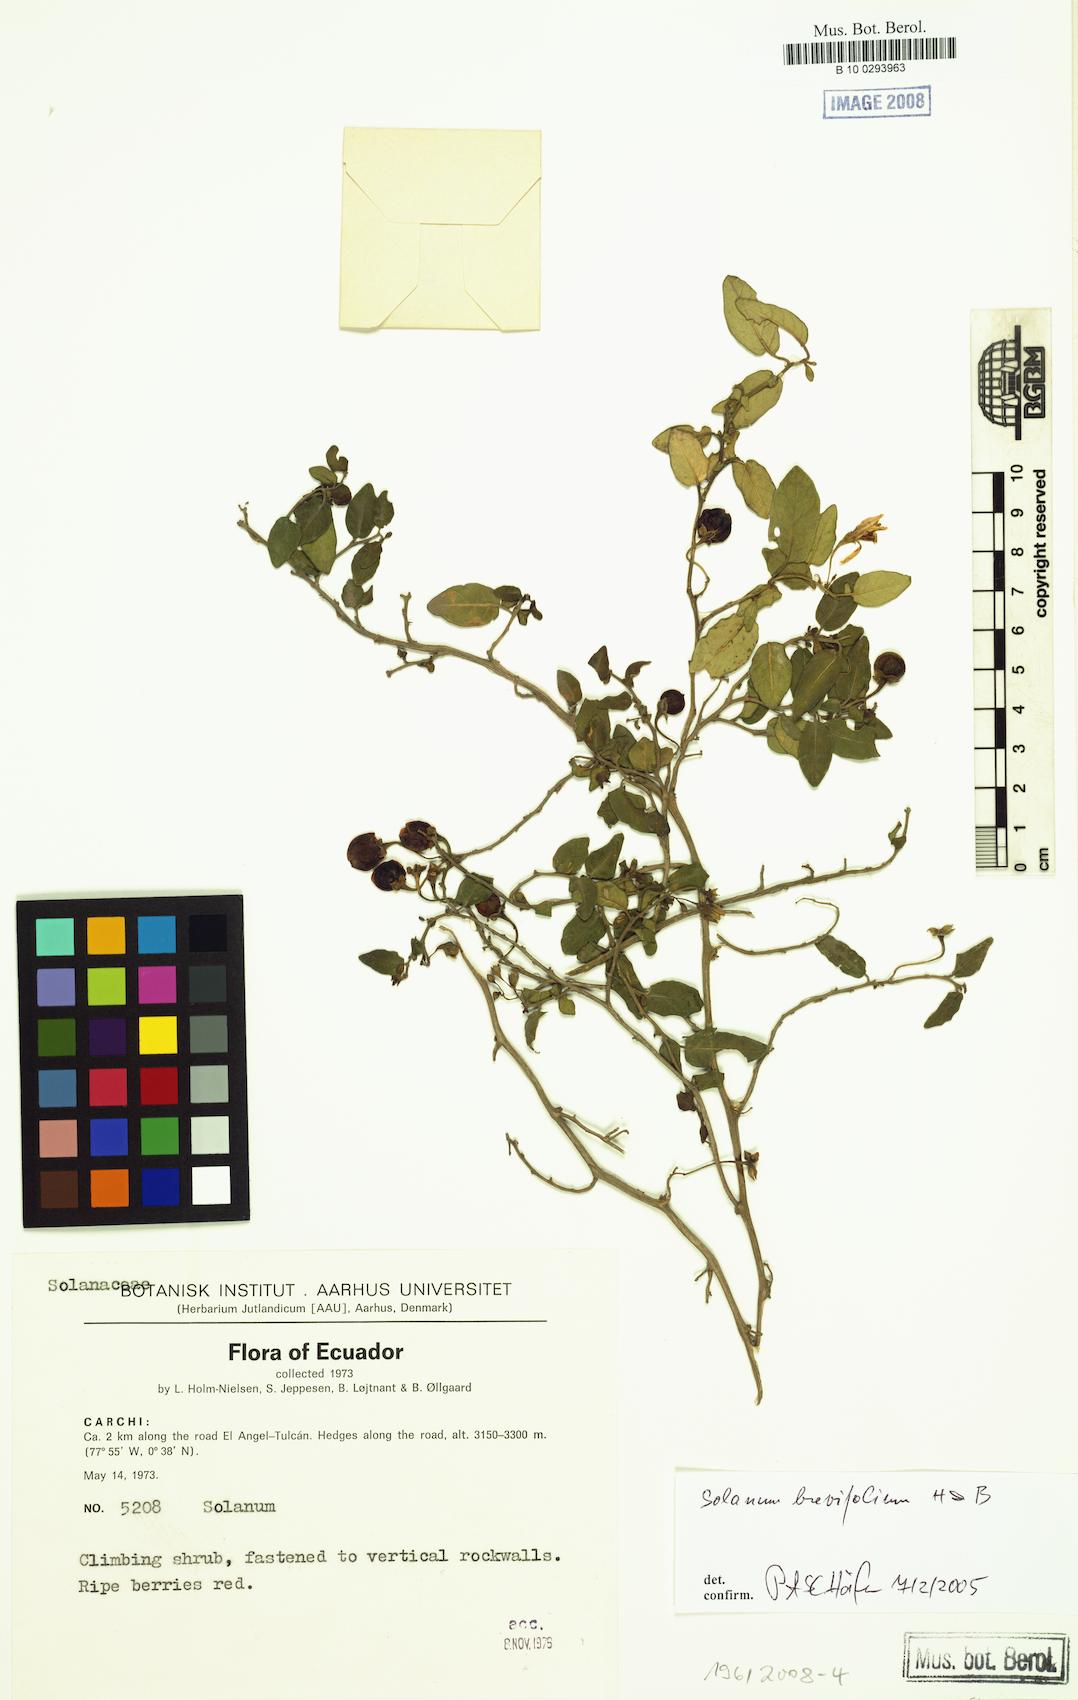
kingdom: Plantae
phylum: Tracheophyta
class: Magnoliopsida
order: Solanales
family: Solanaceae
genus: Solanum
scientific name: Solanum brevifolium
